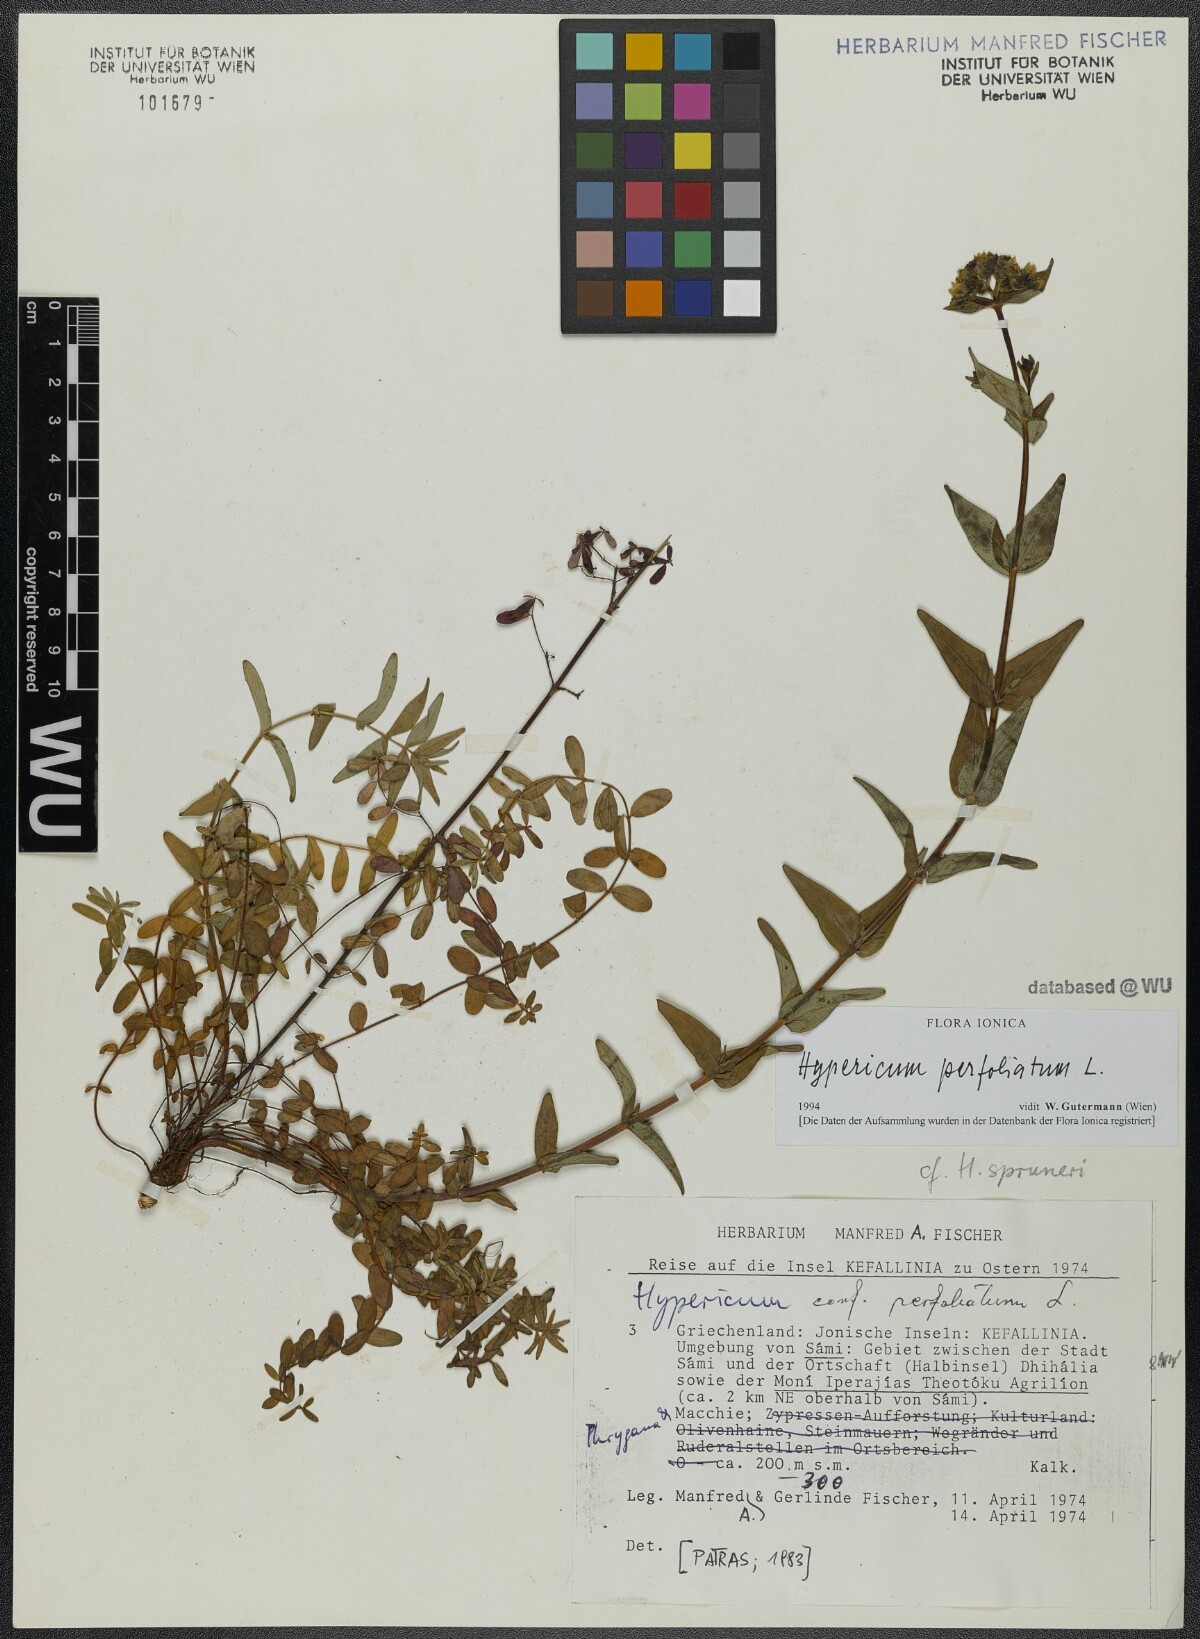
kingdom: Plantae
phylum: Tracheophyta
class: Magnoliopsida
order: Malpighiales
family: Hypericaceae
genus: Hypericum
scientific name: Hypericum perfoliatum
